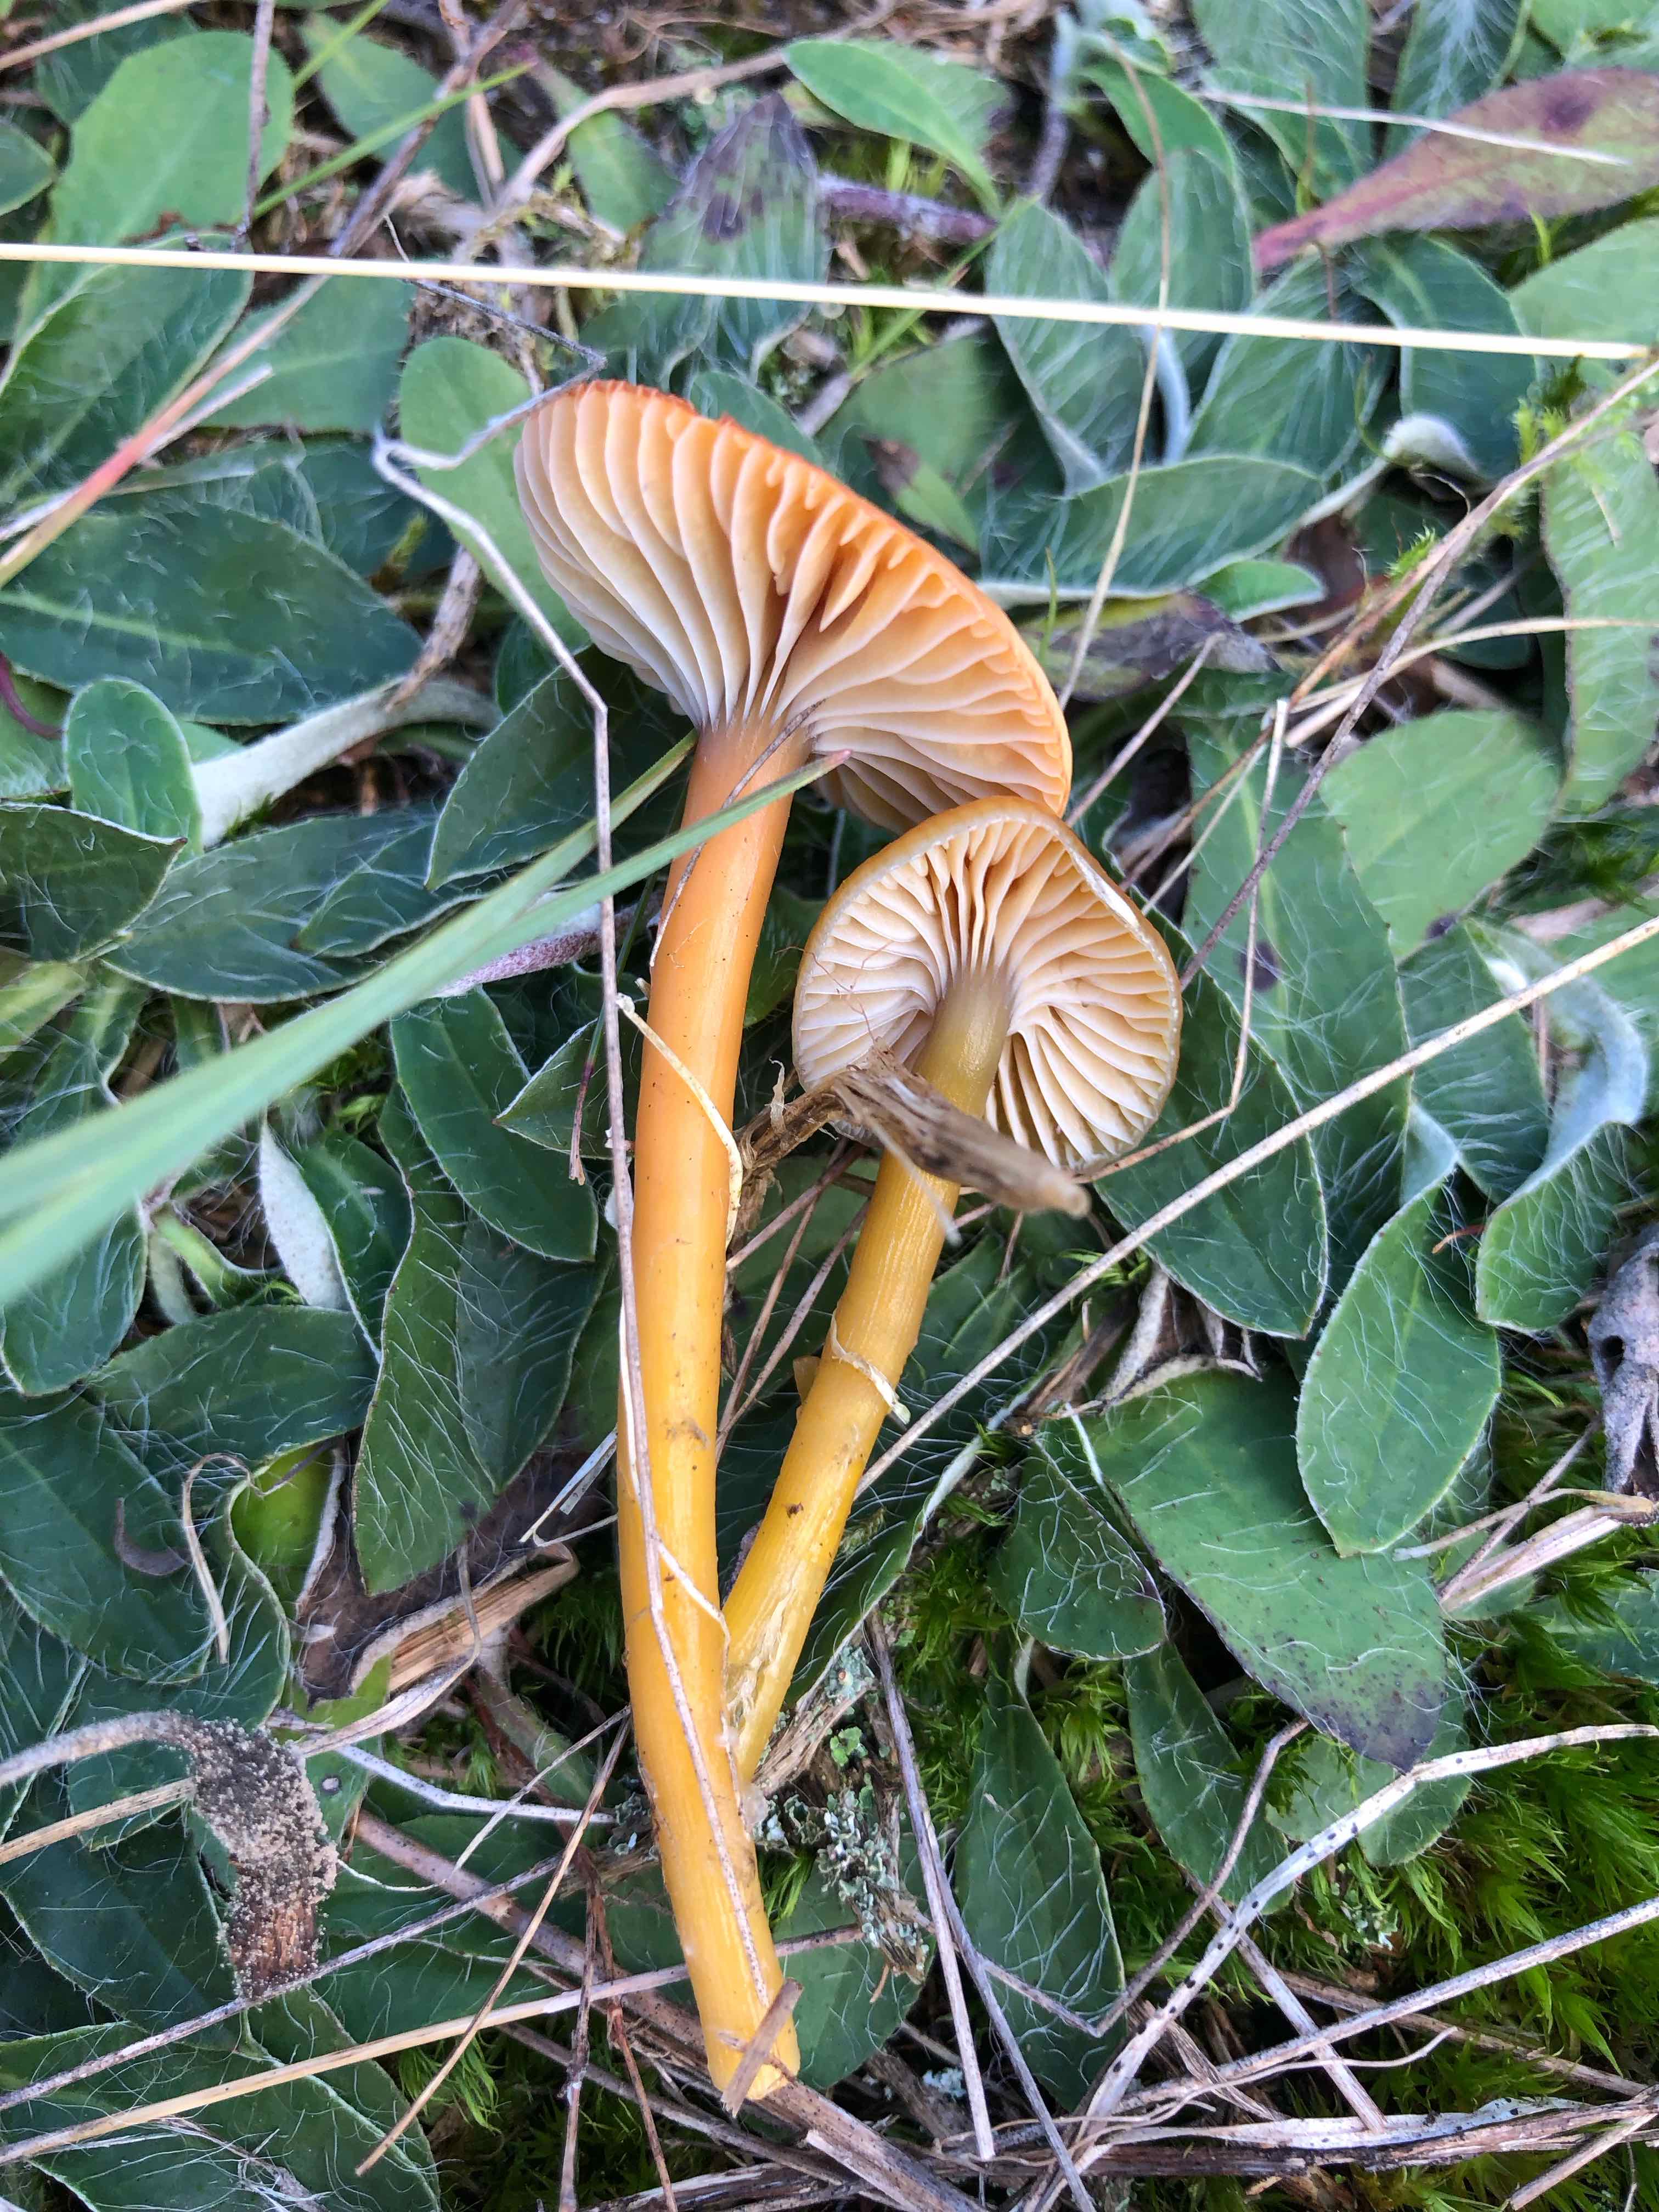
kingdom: Fungi
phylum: Basidiomycota
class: Agaricomycetes
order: Agaricales
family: Hygrophoraceae
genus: Gliophorus
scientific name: Gliophorus laetus
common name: brusk-vokshat
